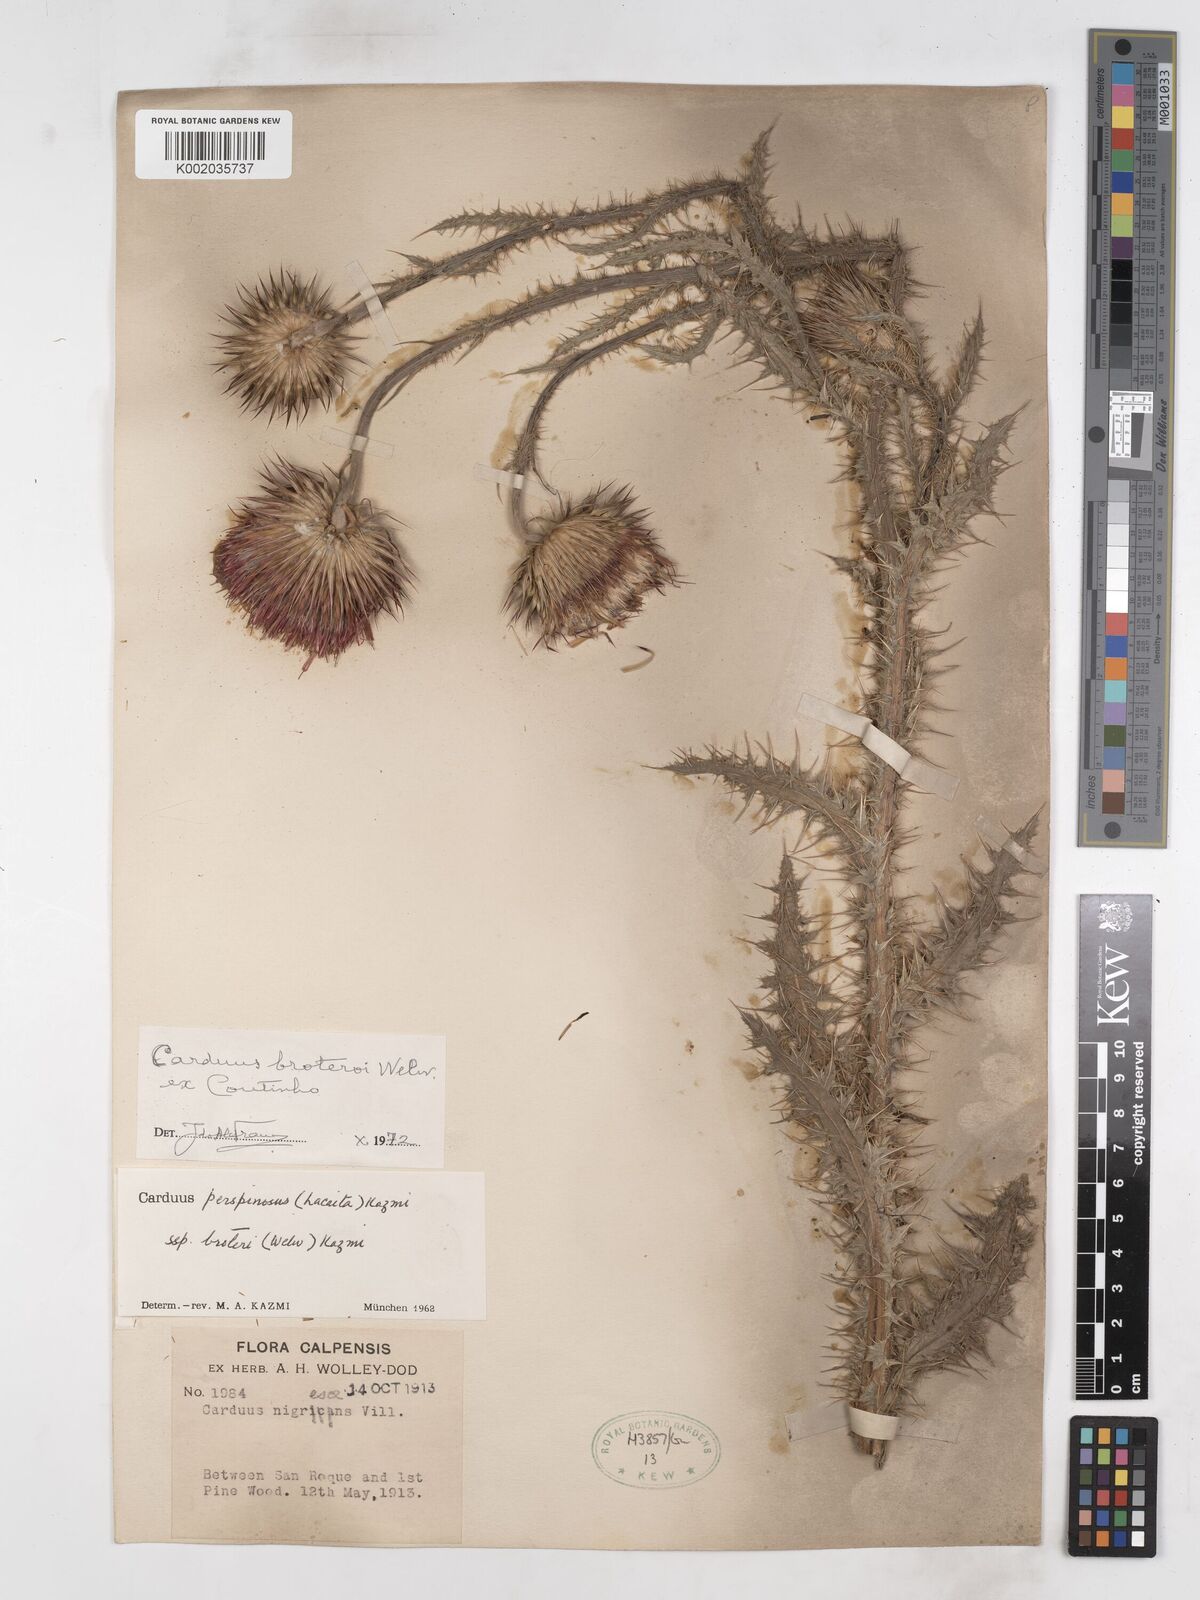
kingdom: Plantae
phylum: Tracheophyta
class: Magnoliopsida
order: Asterales
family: Asteraceae
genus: Carduus
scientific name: Carduus broteroi
